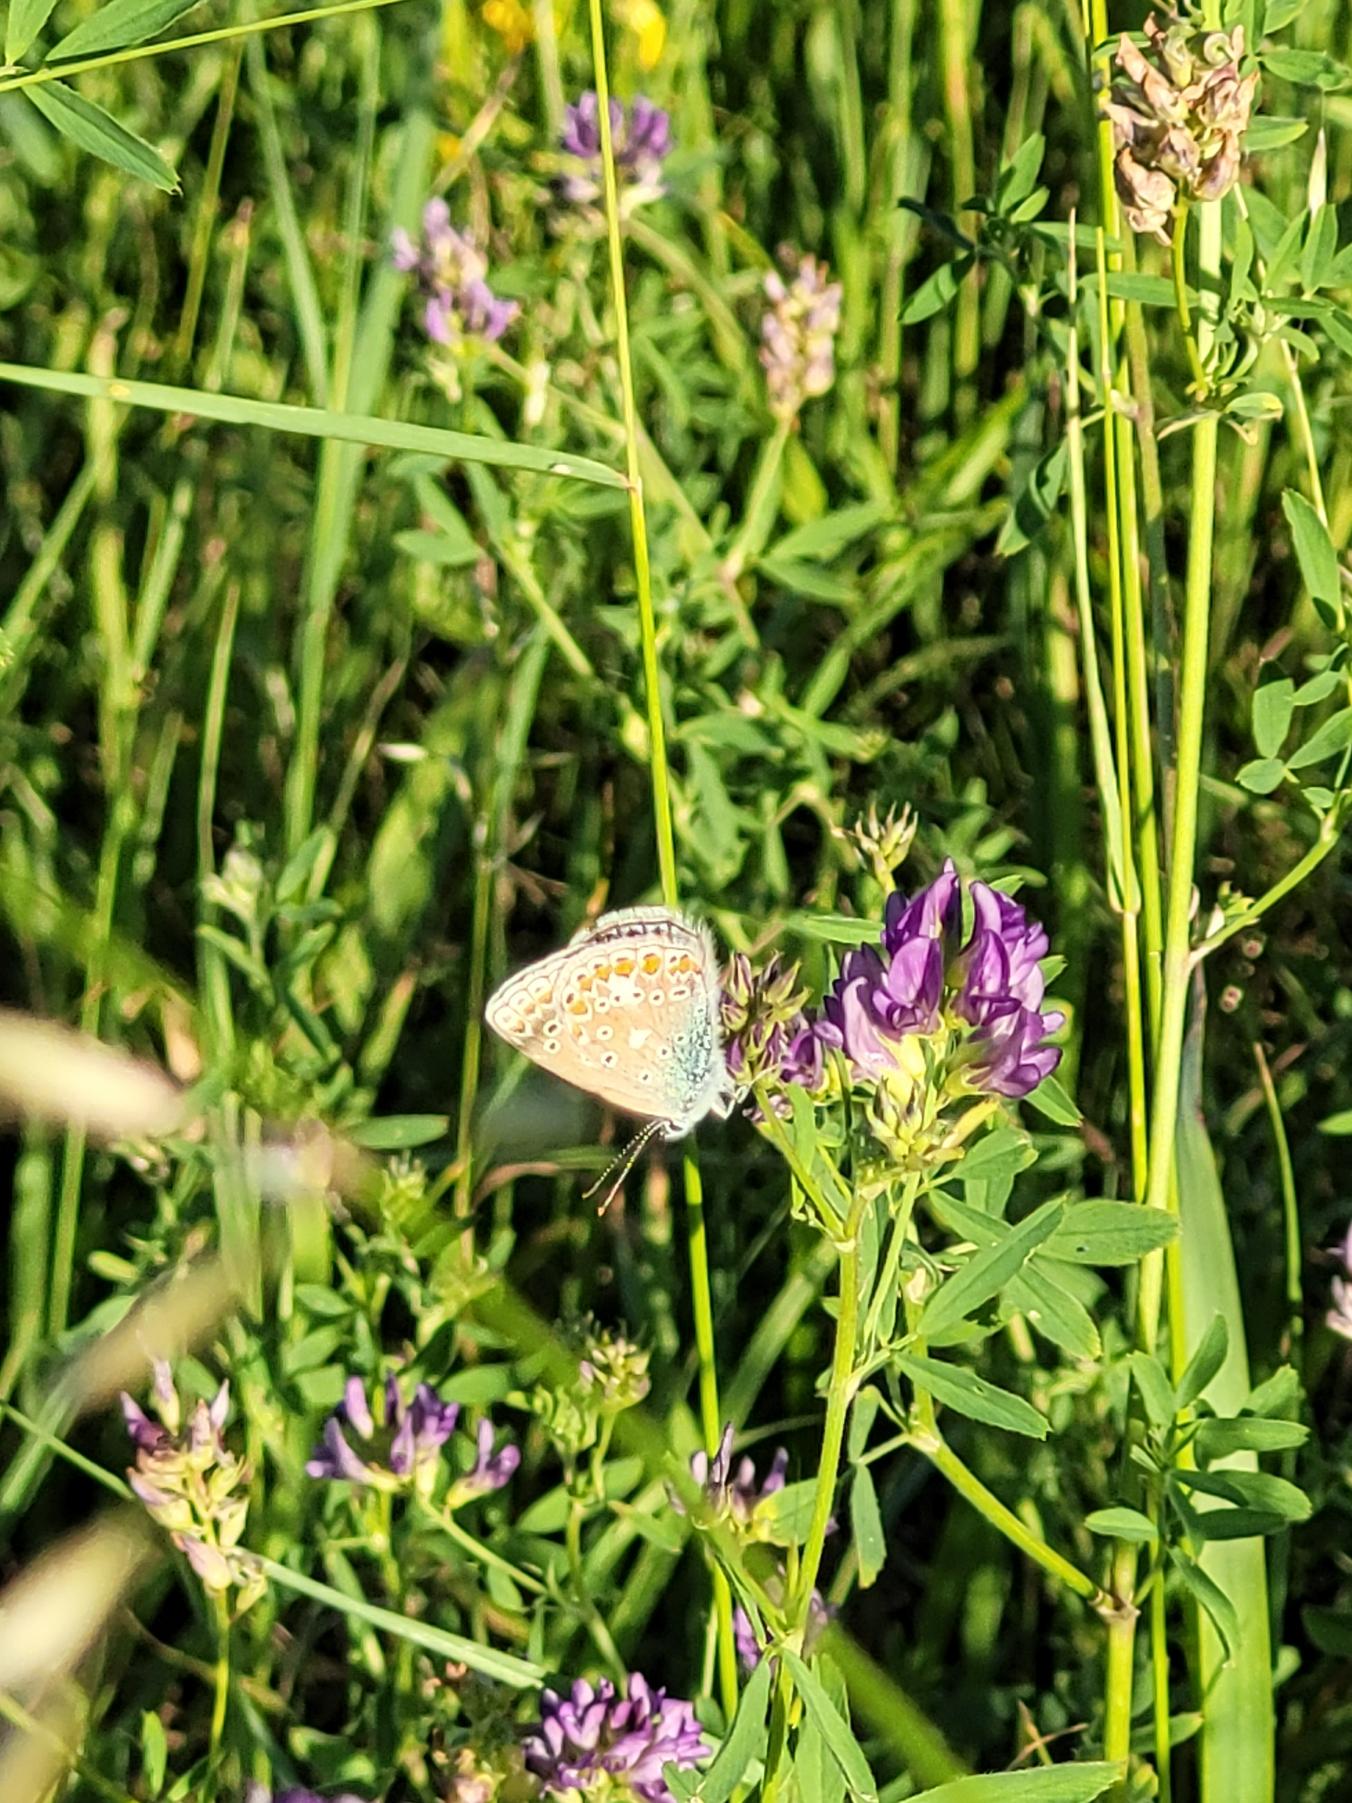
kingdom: Animalia
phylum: Arthropoda
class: Insecta
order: Lepidoptera
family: Lycaenidae
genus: Polyommatus
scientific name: Polyommatus icarus
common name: Almindelig blåfugl
